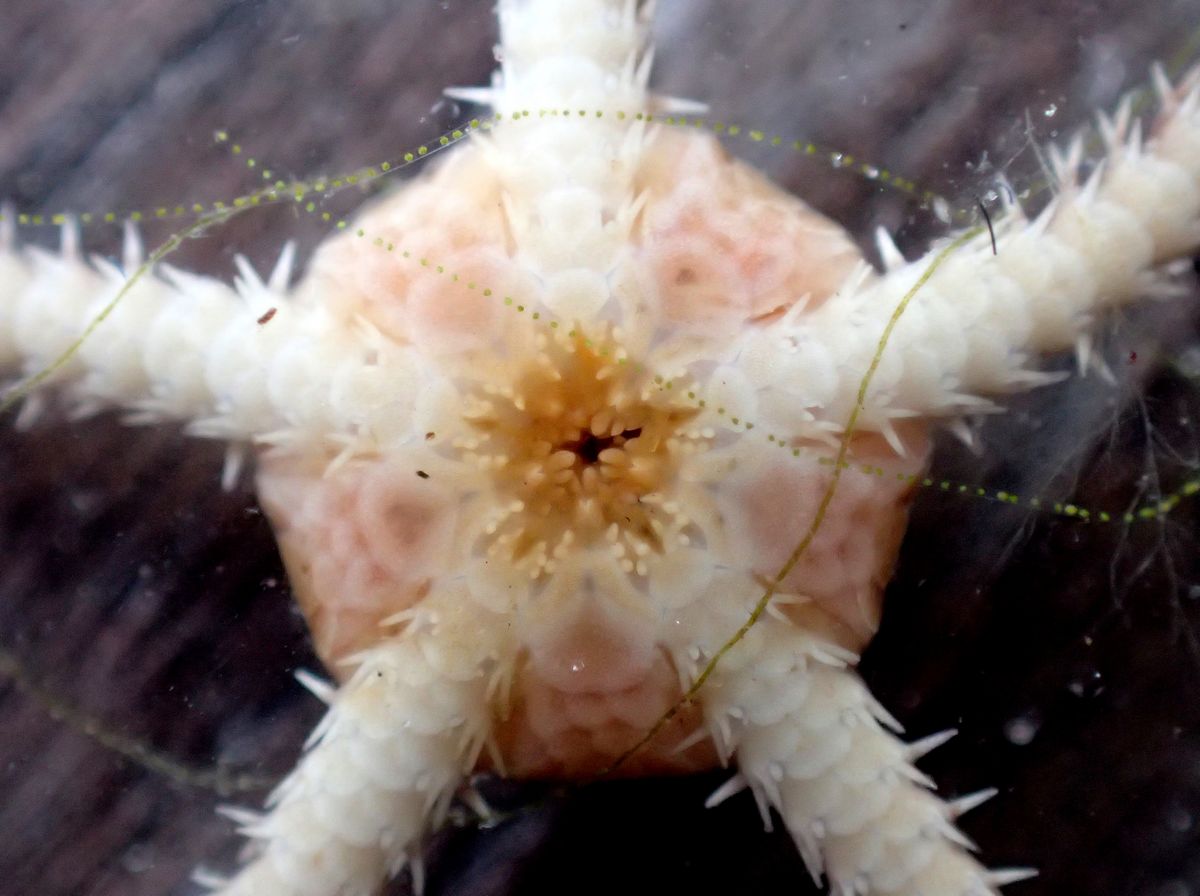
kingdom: Animalia
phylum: Echinodermata
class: Ophiuroidea
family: Ophiuridae
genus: Ophiura
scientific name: Ophiura robusta
